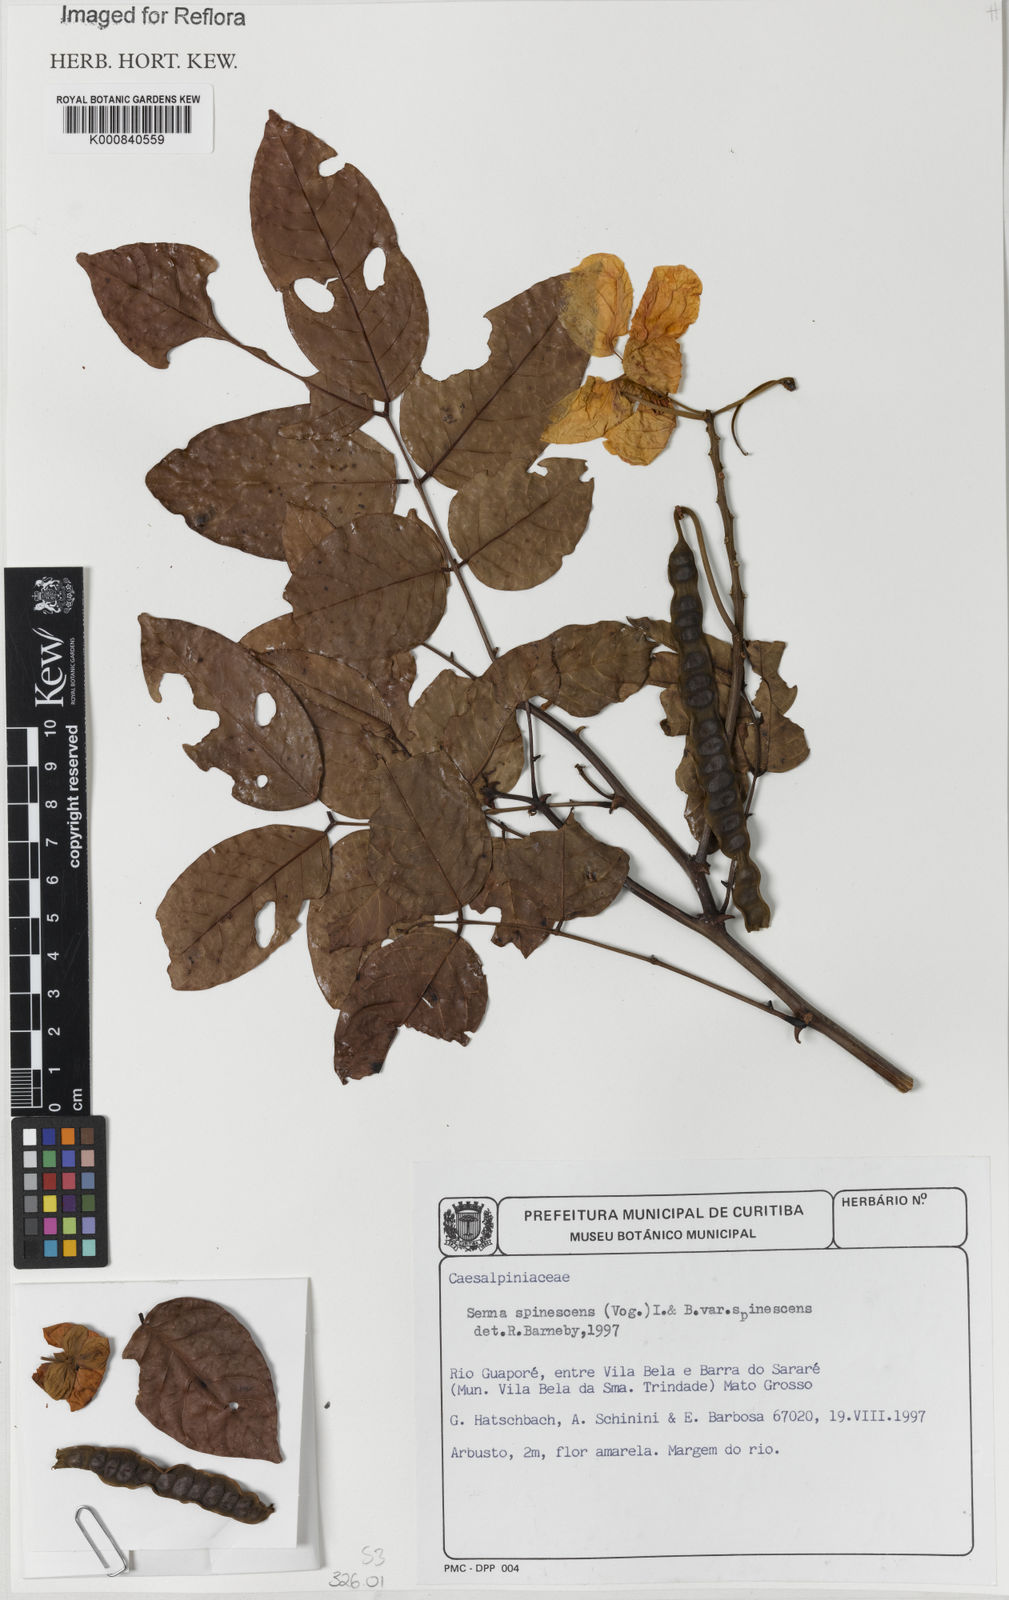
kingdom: Plantae
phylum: Tracheophyta
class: Magnoliopsida
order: Fabales
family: Fabaceae
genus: Senna
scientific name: Senna spinescens
